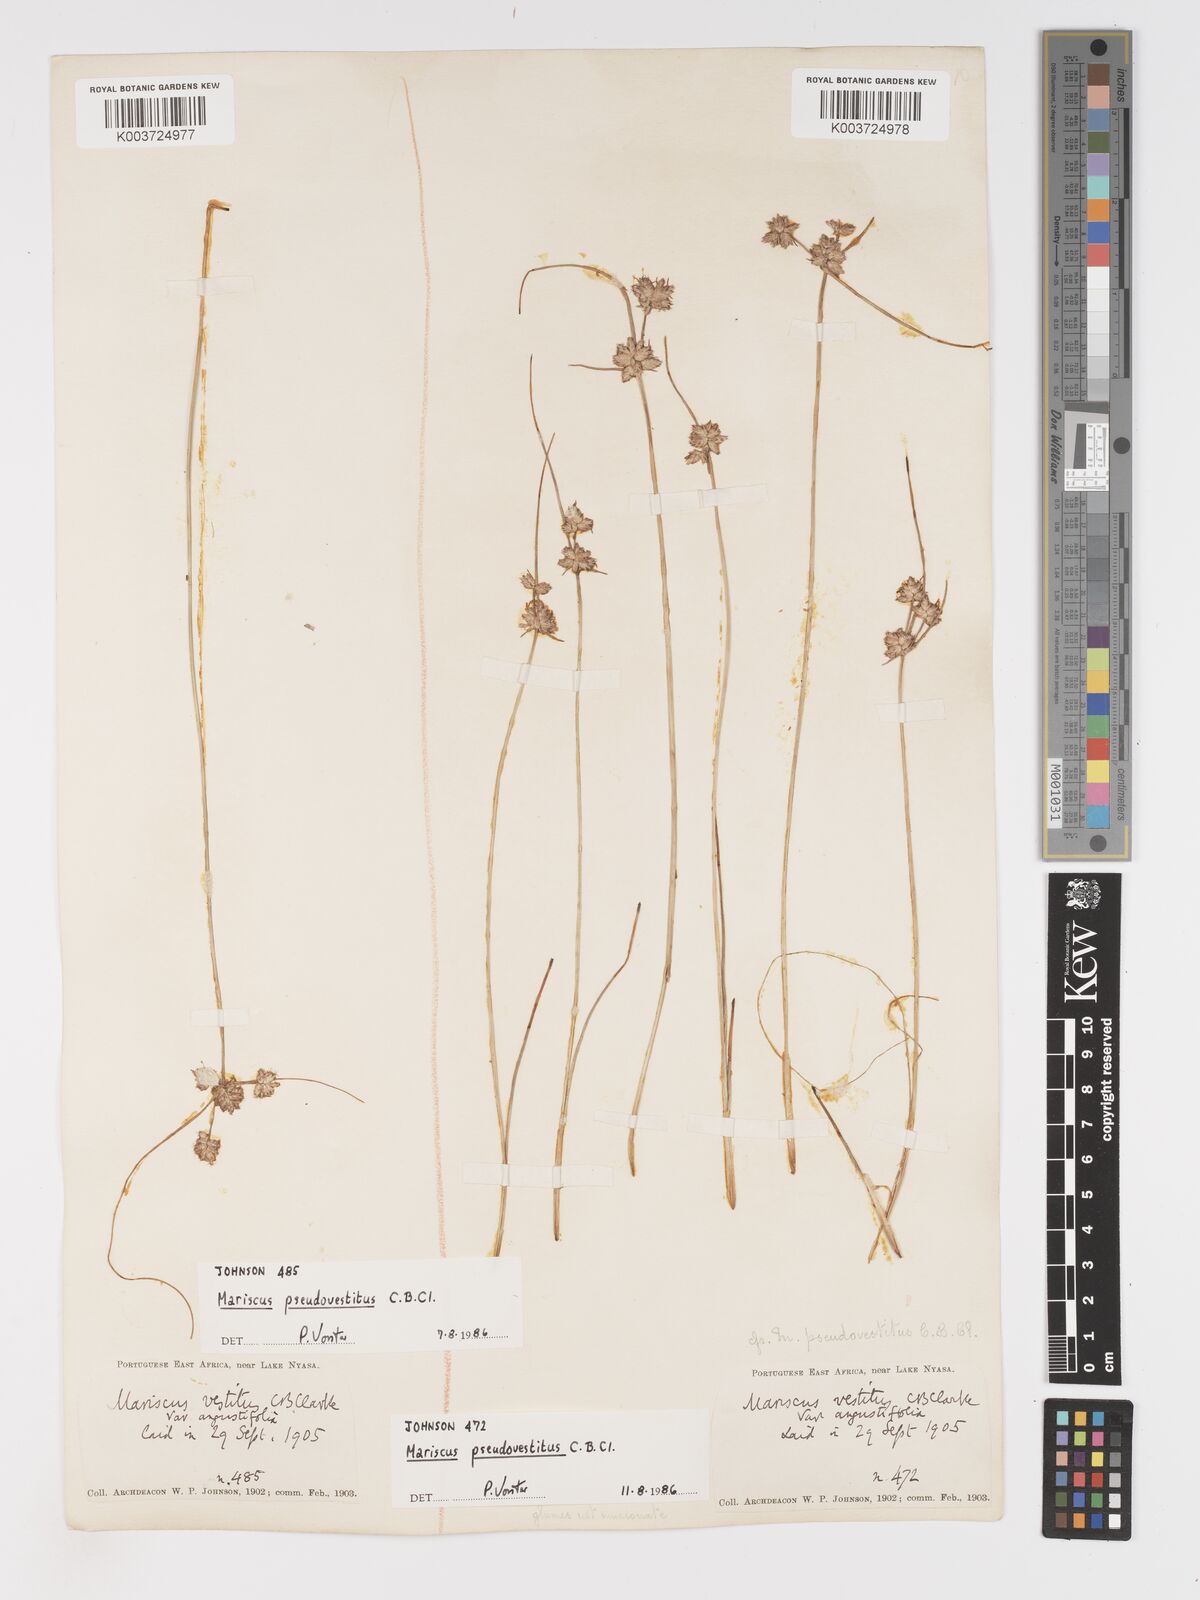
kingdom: Plantae
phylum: Tracheophyta
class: Liliopsida
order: Poales
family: Cyperaceae
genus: Cyperus
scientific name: Cyperus pseudovestitus
